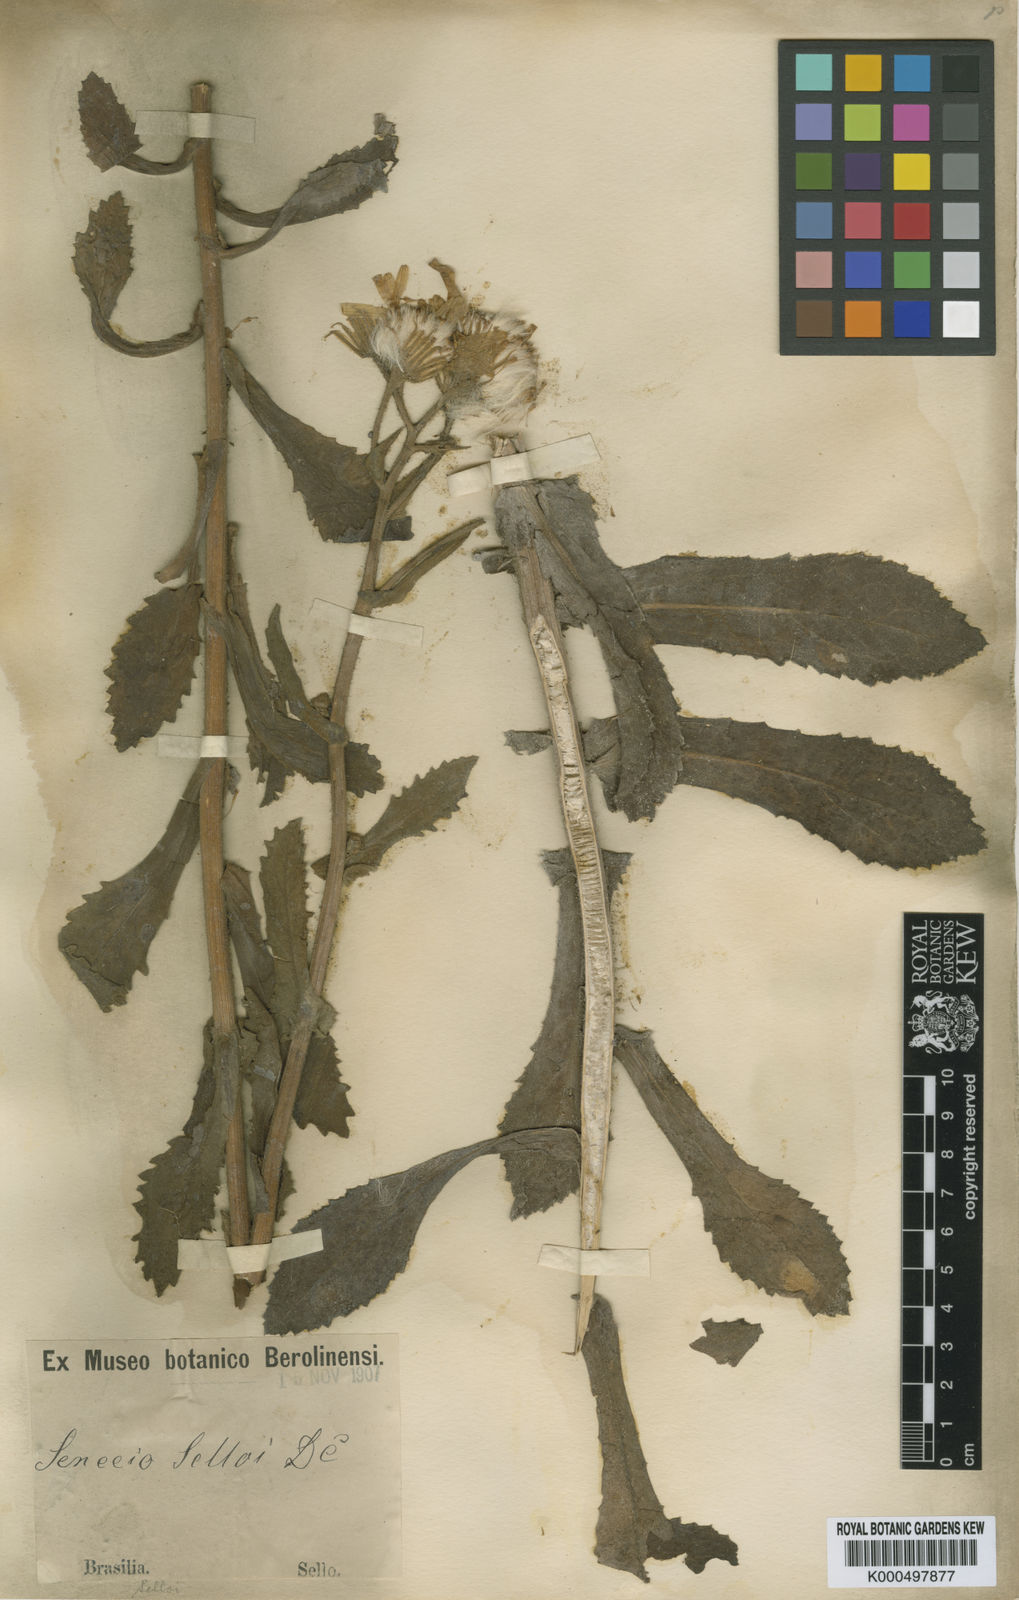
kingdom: Plantae
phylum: Tracheophyta
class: Magnoliopsida
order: Asterales
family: Asteraceae
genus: Senecio
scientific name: Senecio selloi
